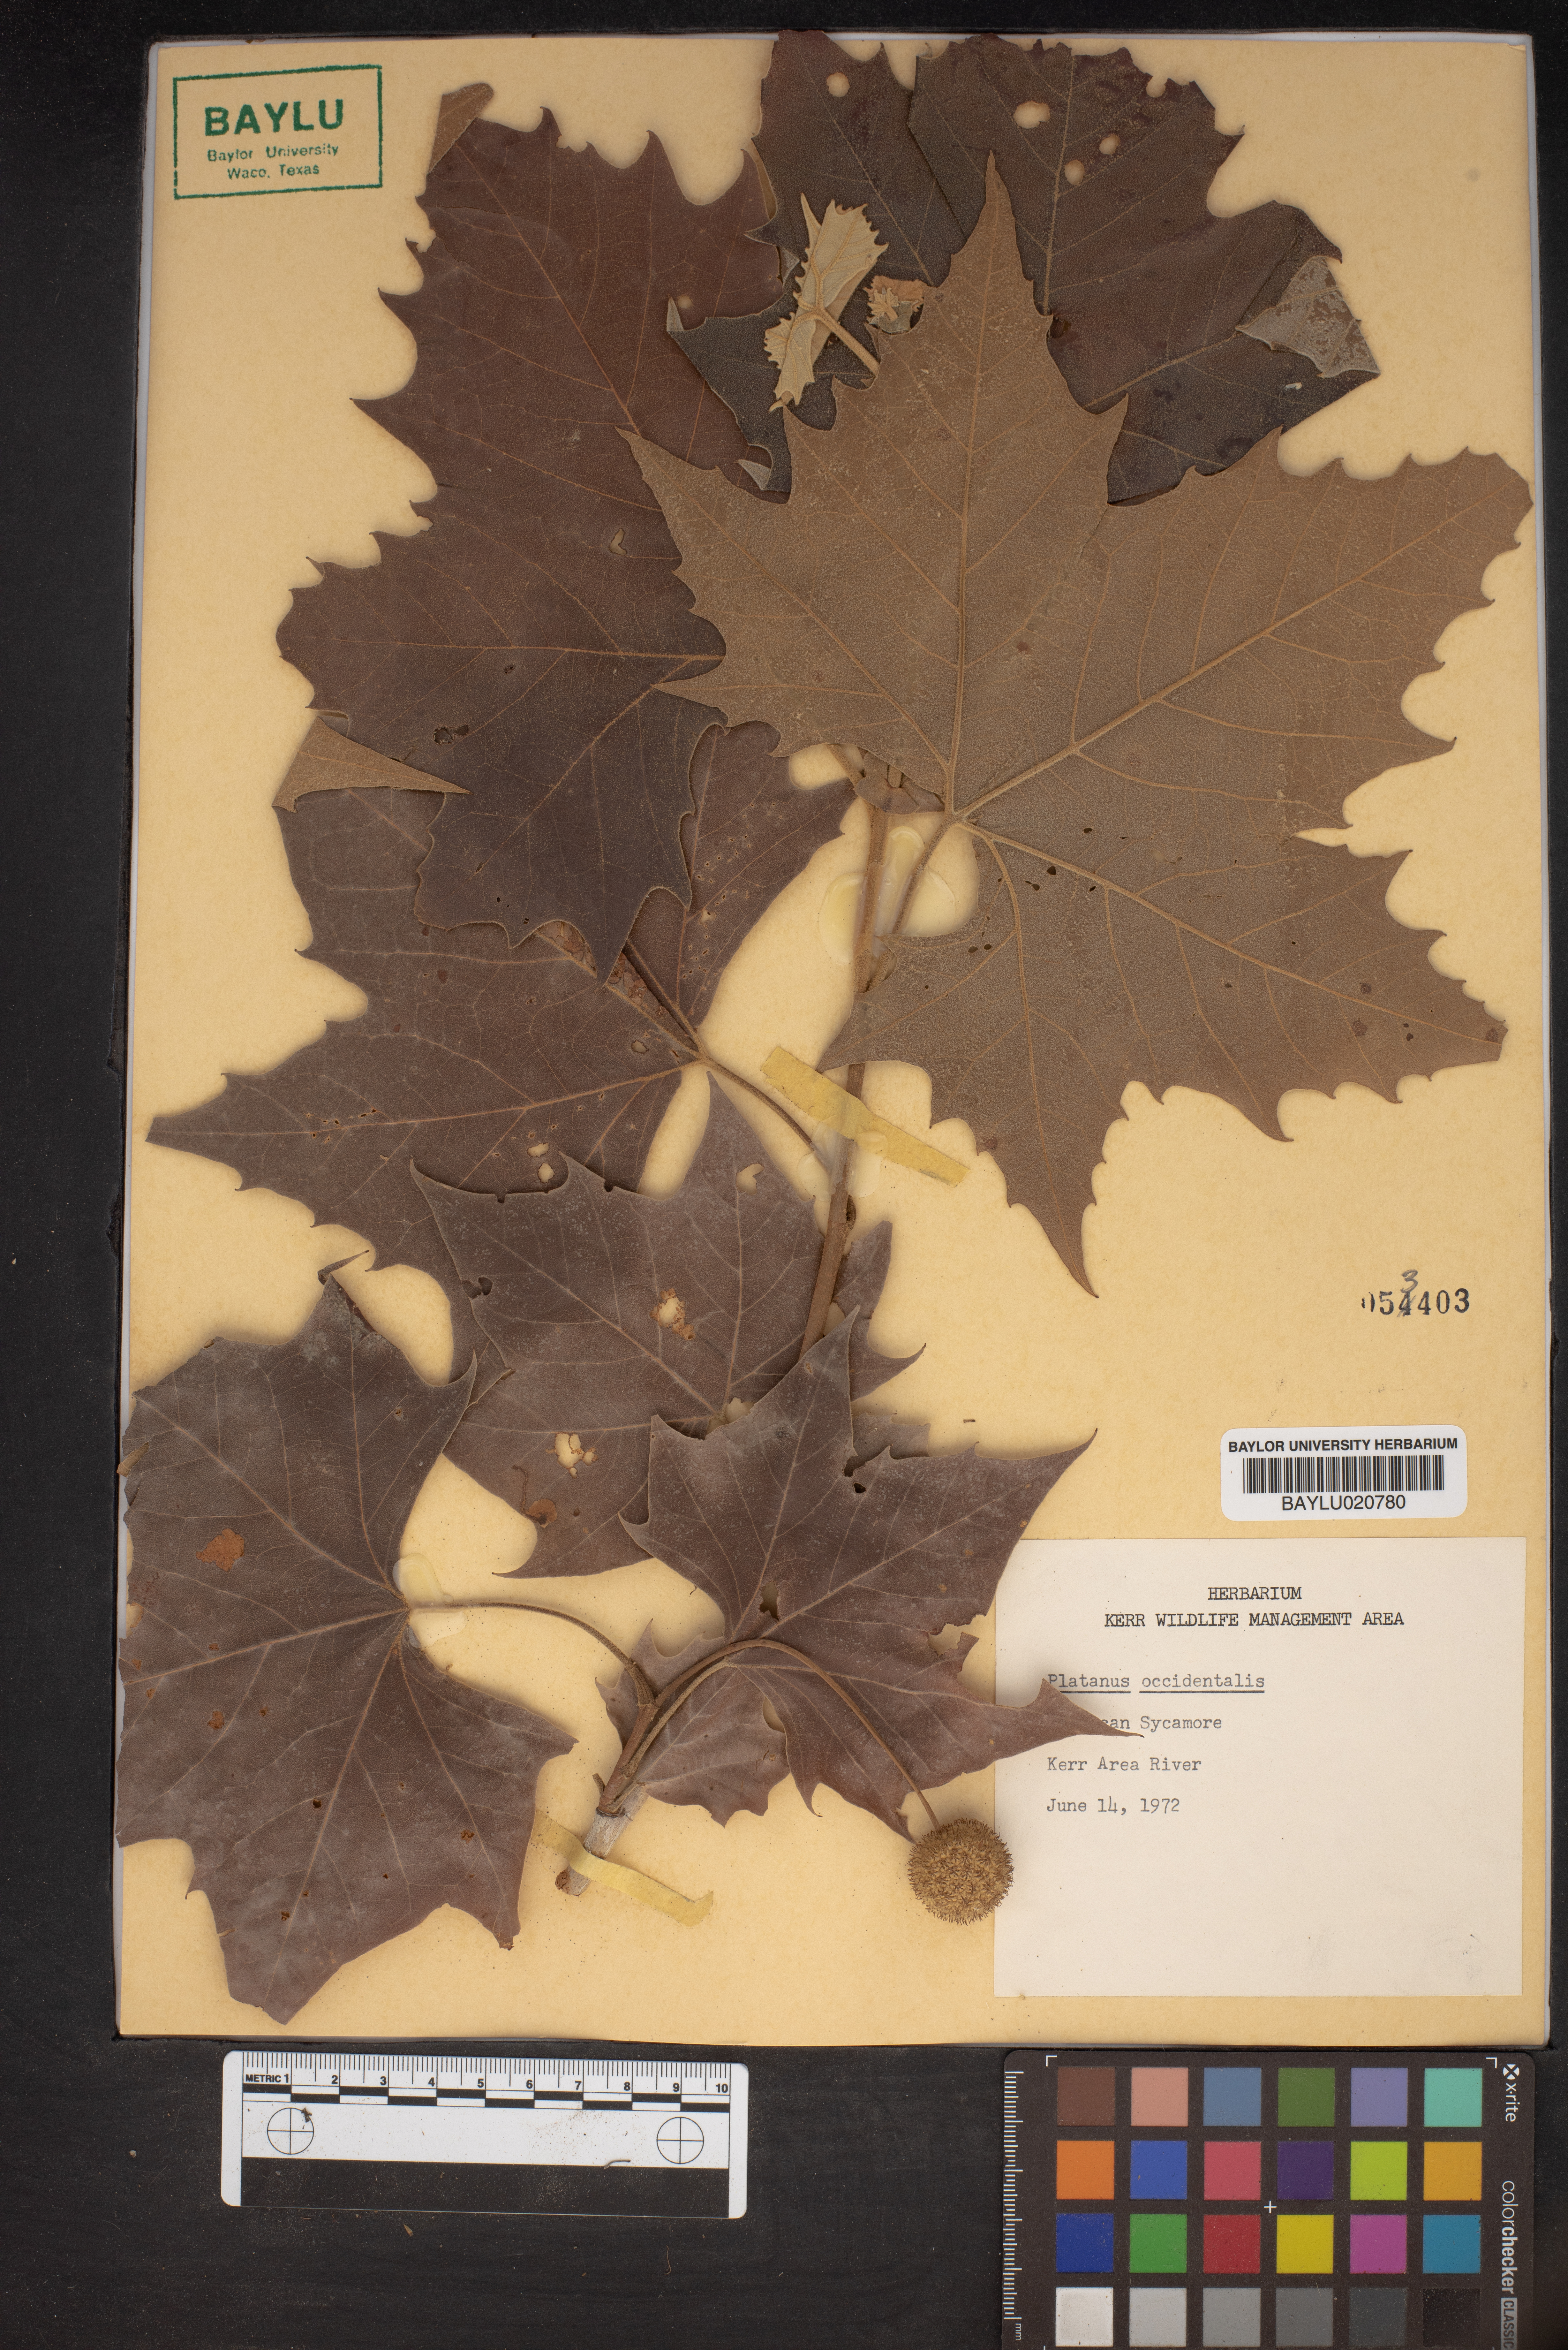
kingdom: Plantae
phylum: Tracheophyta
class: Magnoliopsida
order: Proteales
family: Platanaceae
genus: Platanus
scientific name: Platanus occidentalis
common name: American sycamore
